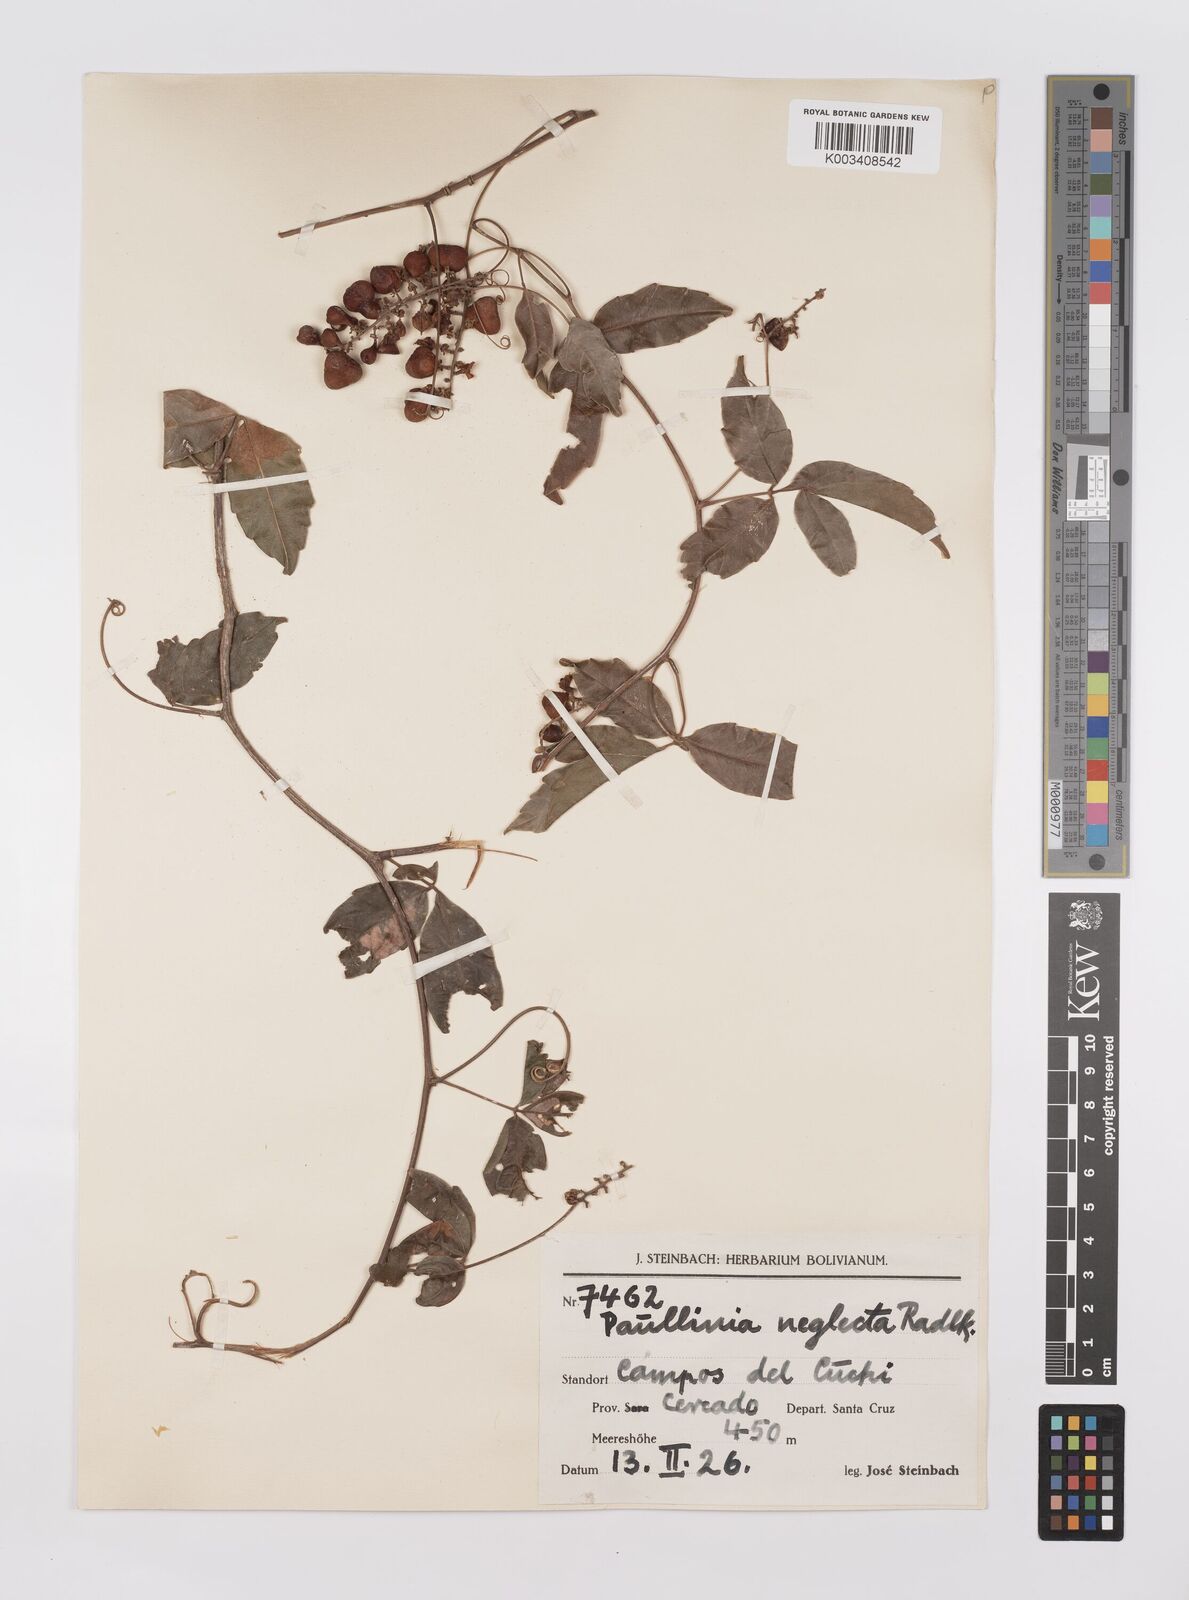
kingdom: Plantae
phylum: Tracheophyta
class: Magnoliopsida
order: Sapindales
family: Sapindaceae
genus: Paullinia
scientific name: Paullinia elegans
